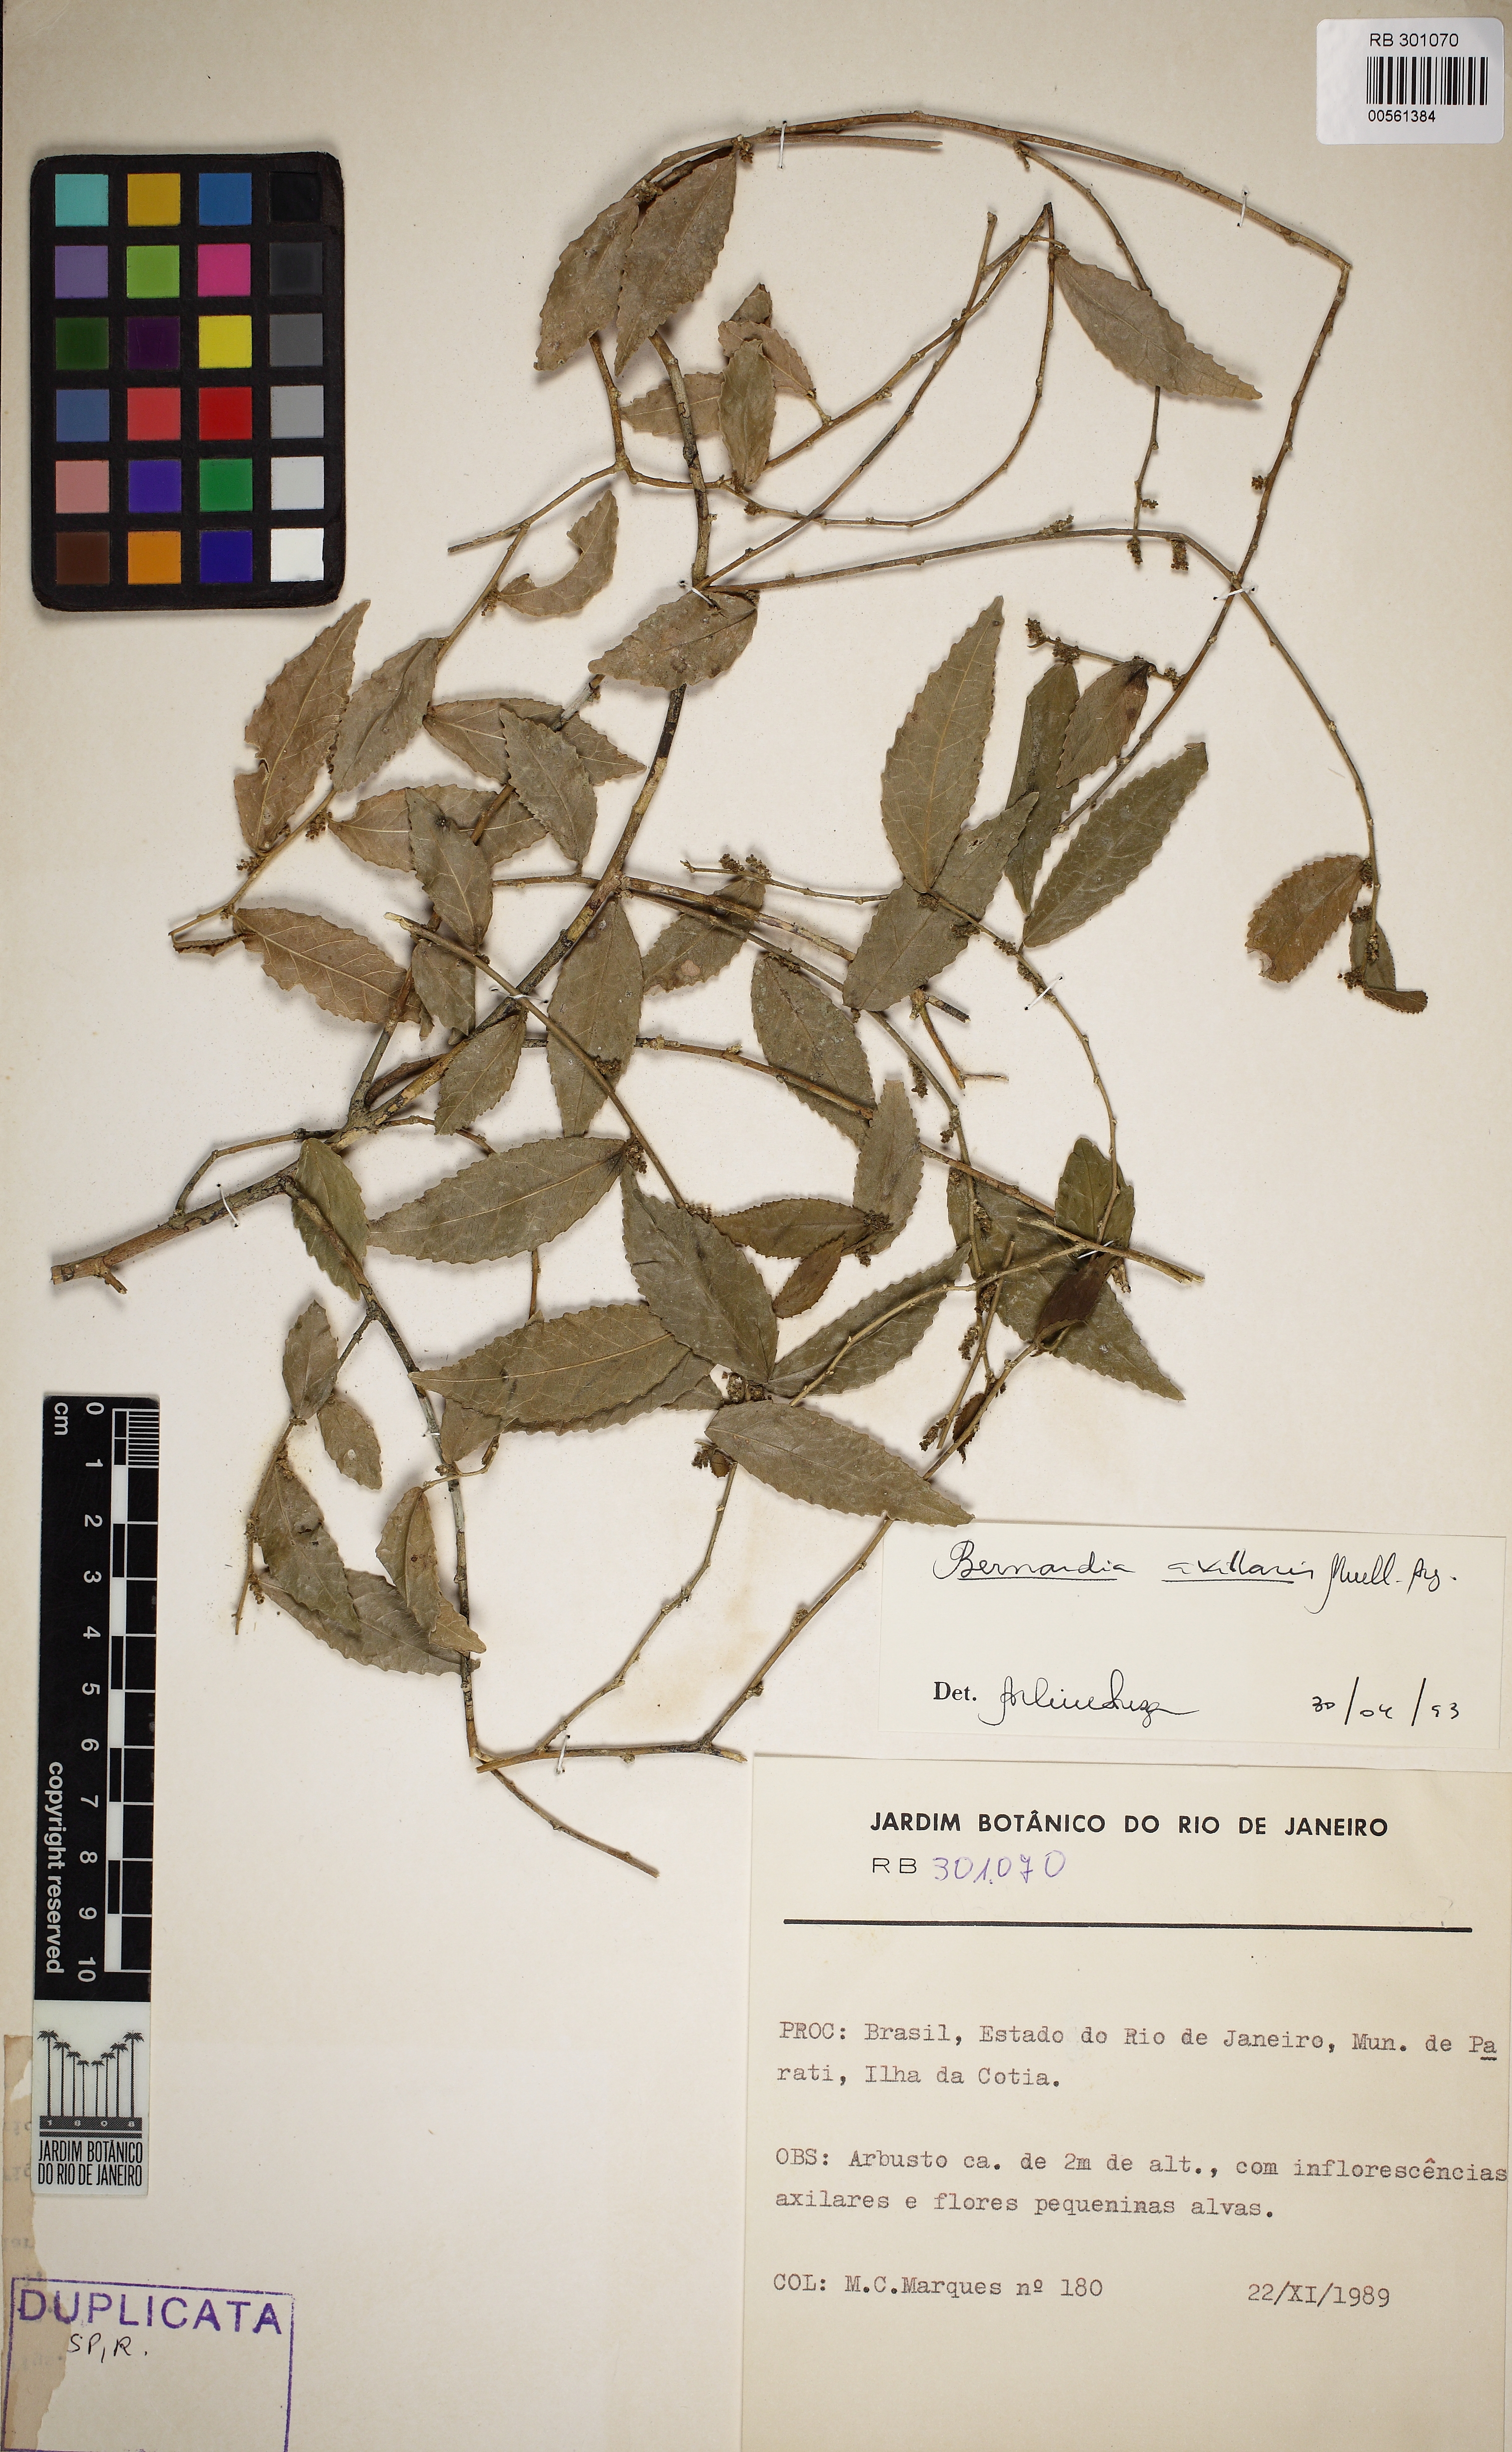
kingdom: Plantae
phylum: Tracheophyta
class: Magnoliopsida
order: Malpighiales
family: Euphorbiaceae
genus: Bernardia
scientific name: Bernardia celastrinea
